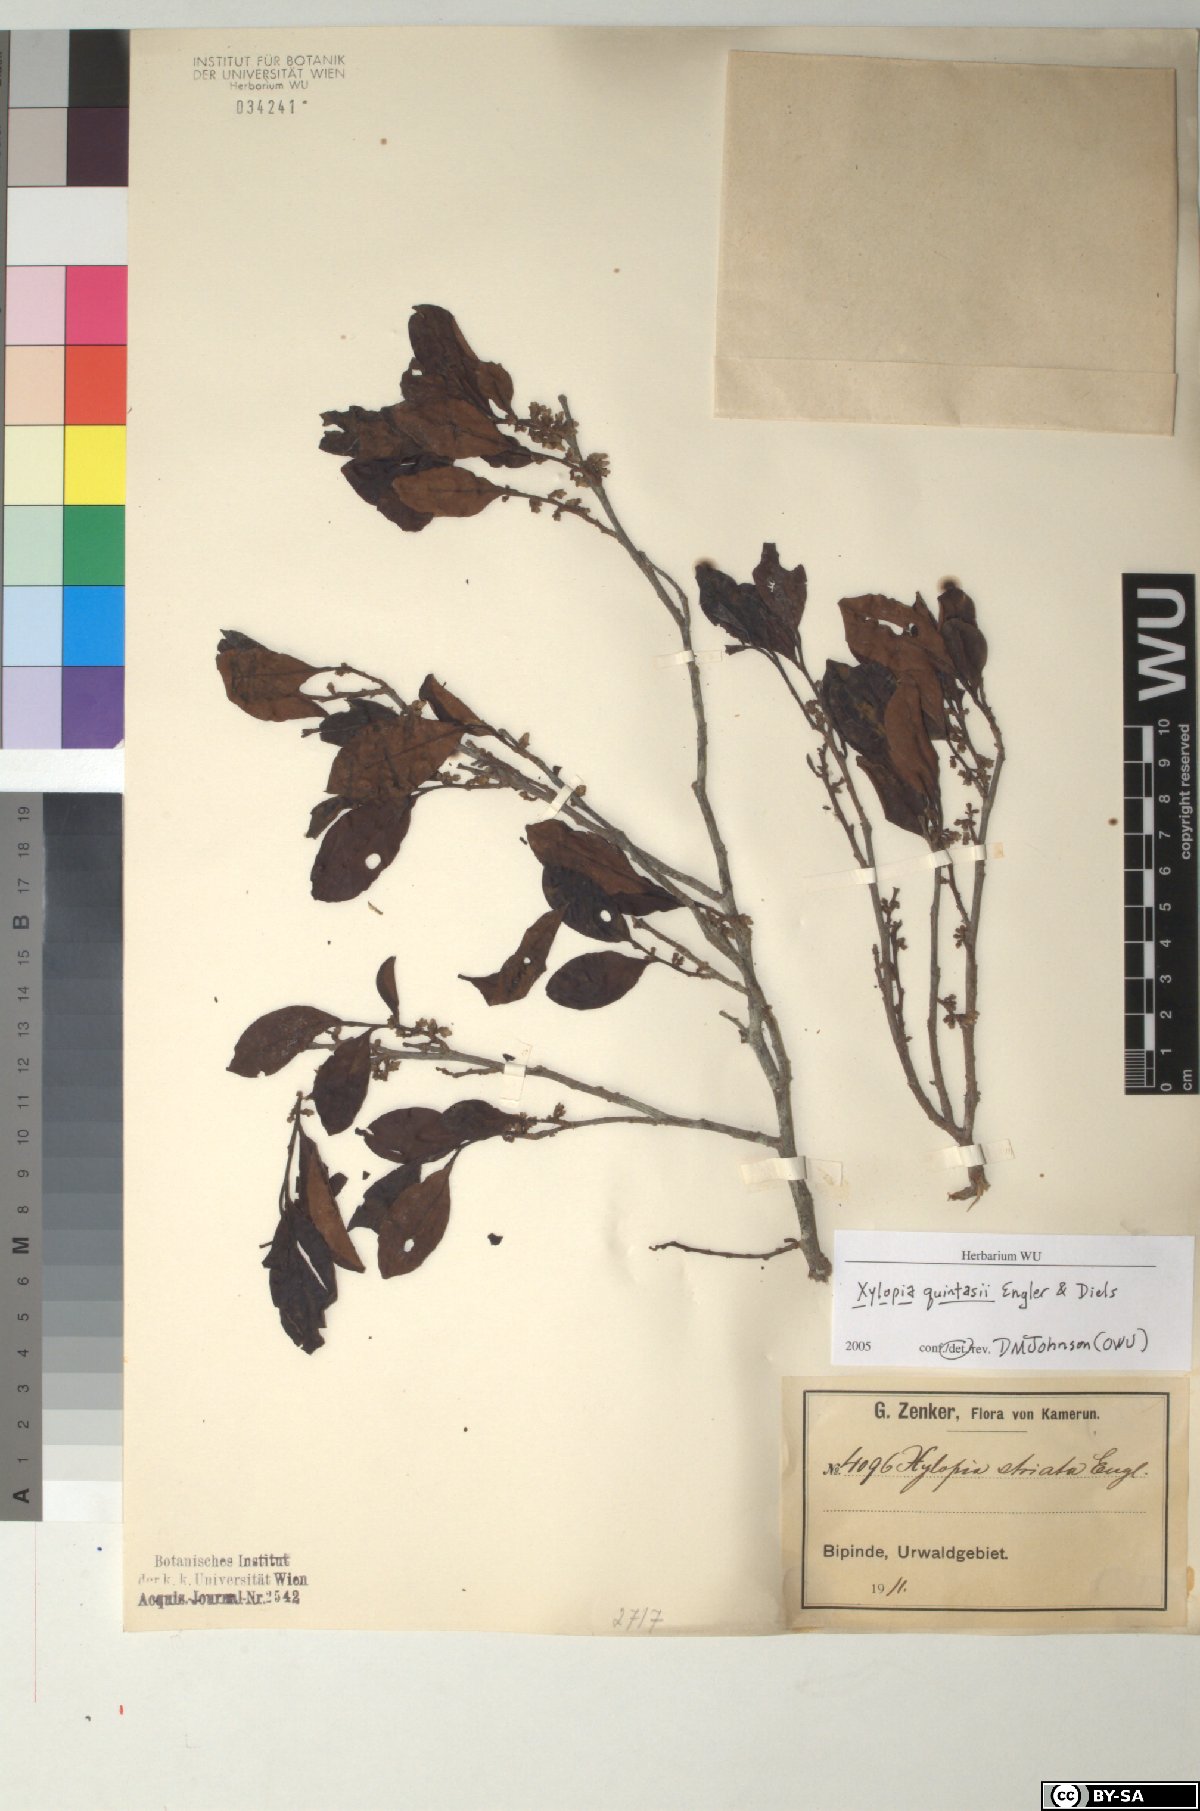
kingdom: Plantae
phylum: Tracheophyta
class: Magnoliopsida
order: Magnoliales
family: Annonaceae
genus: Xylopia
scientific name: Xylopia quintasii
